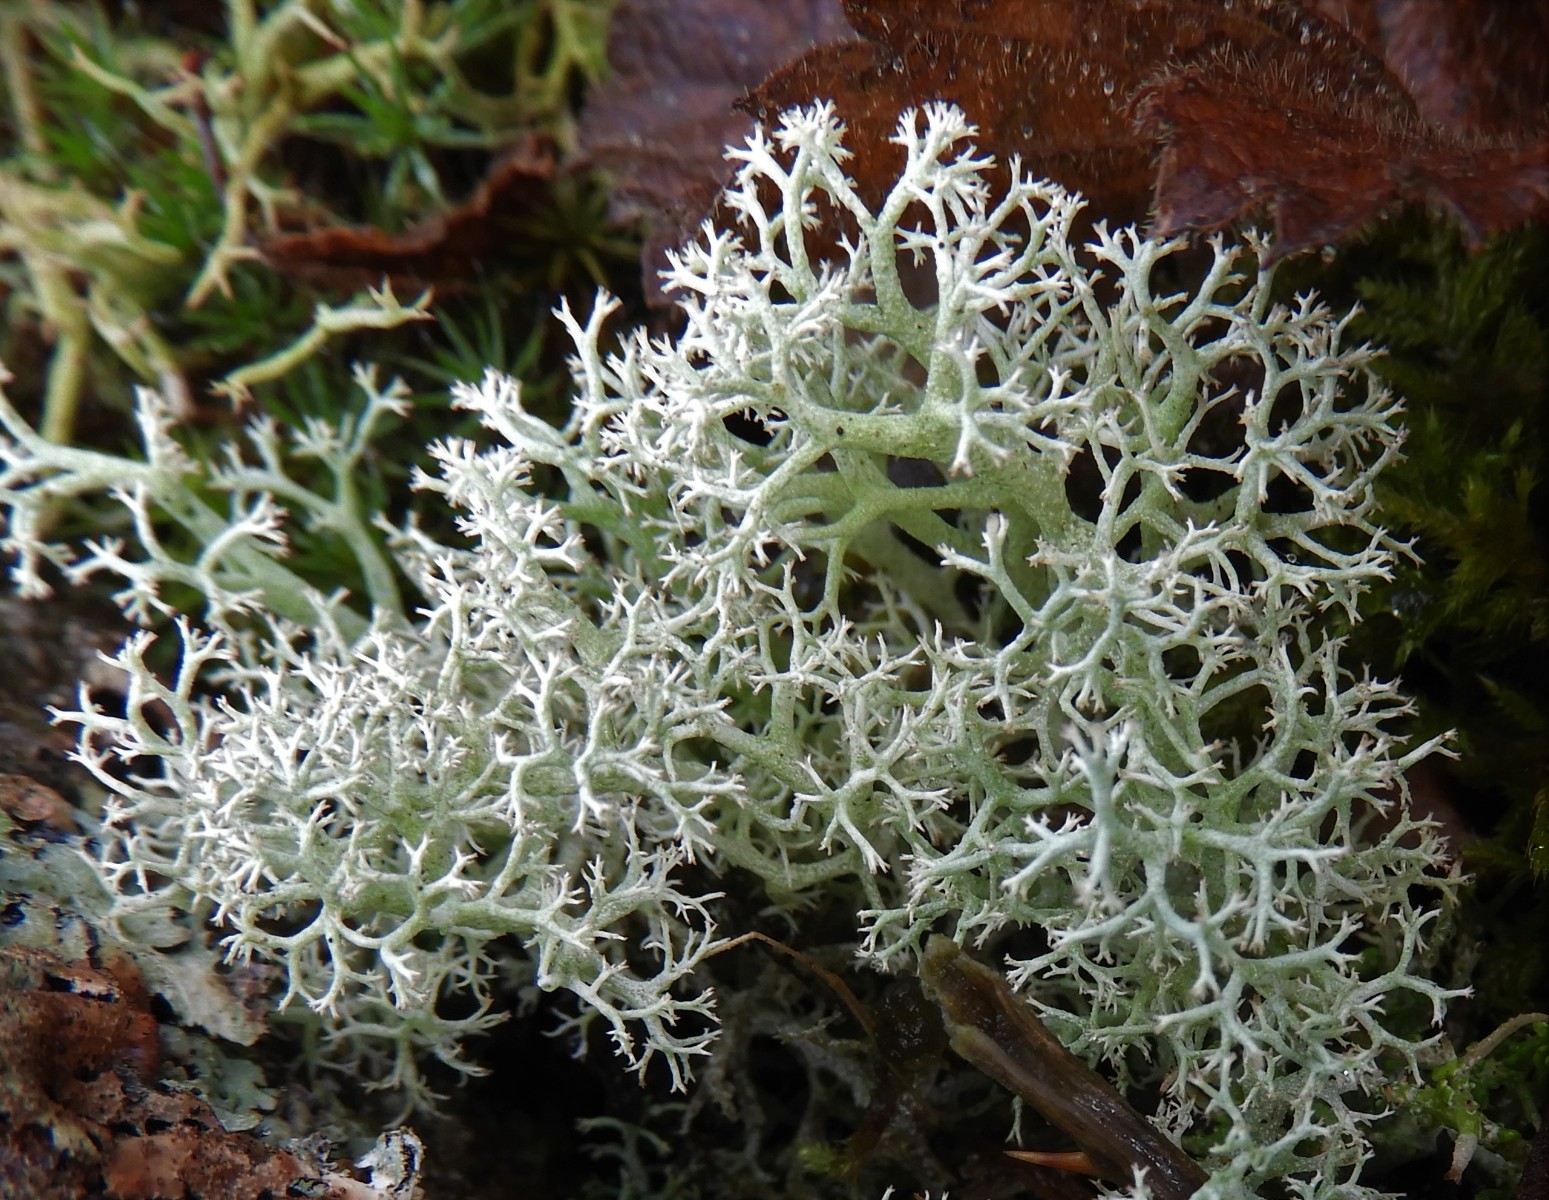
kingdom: Fungi
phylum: Ascomycota
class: Lecanoromycetes
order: Lecanorales
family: Cladoniaceae
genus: Cladonia
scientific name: Cladonia portentosa
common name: hede-rensdyrlav
